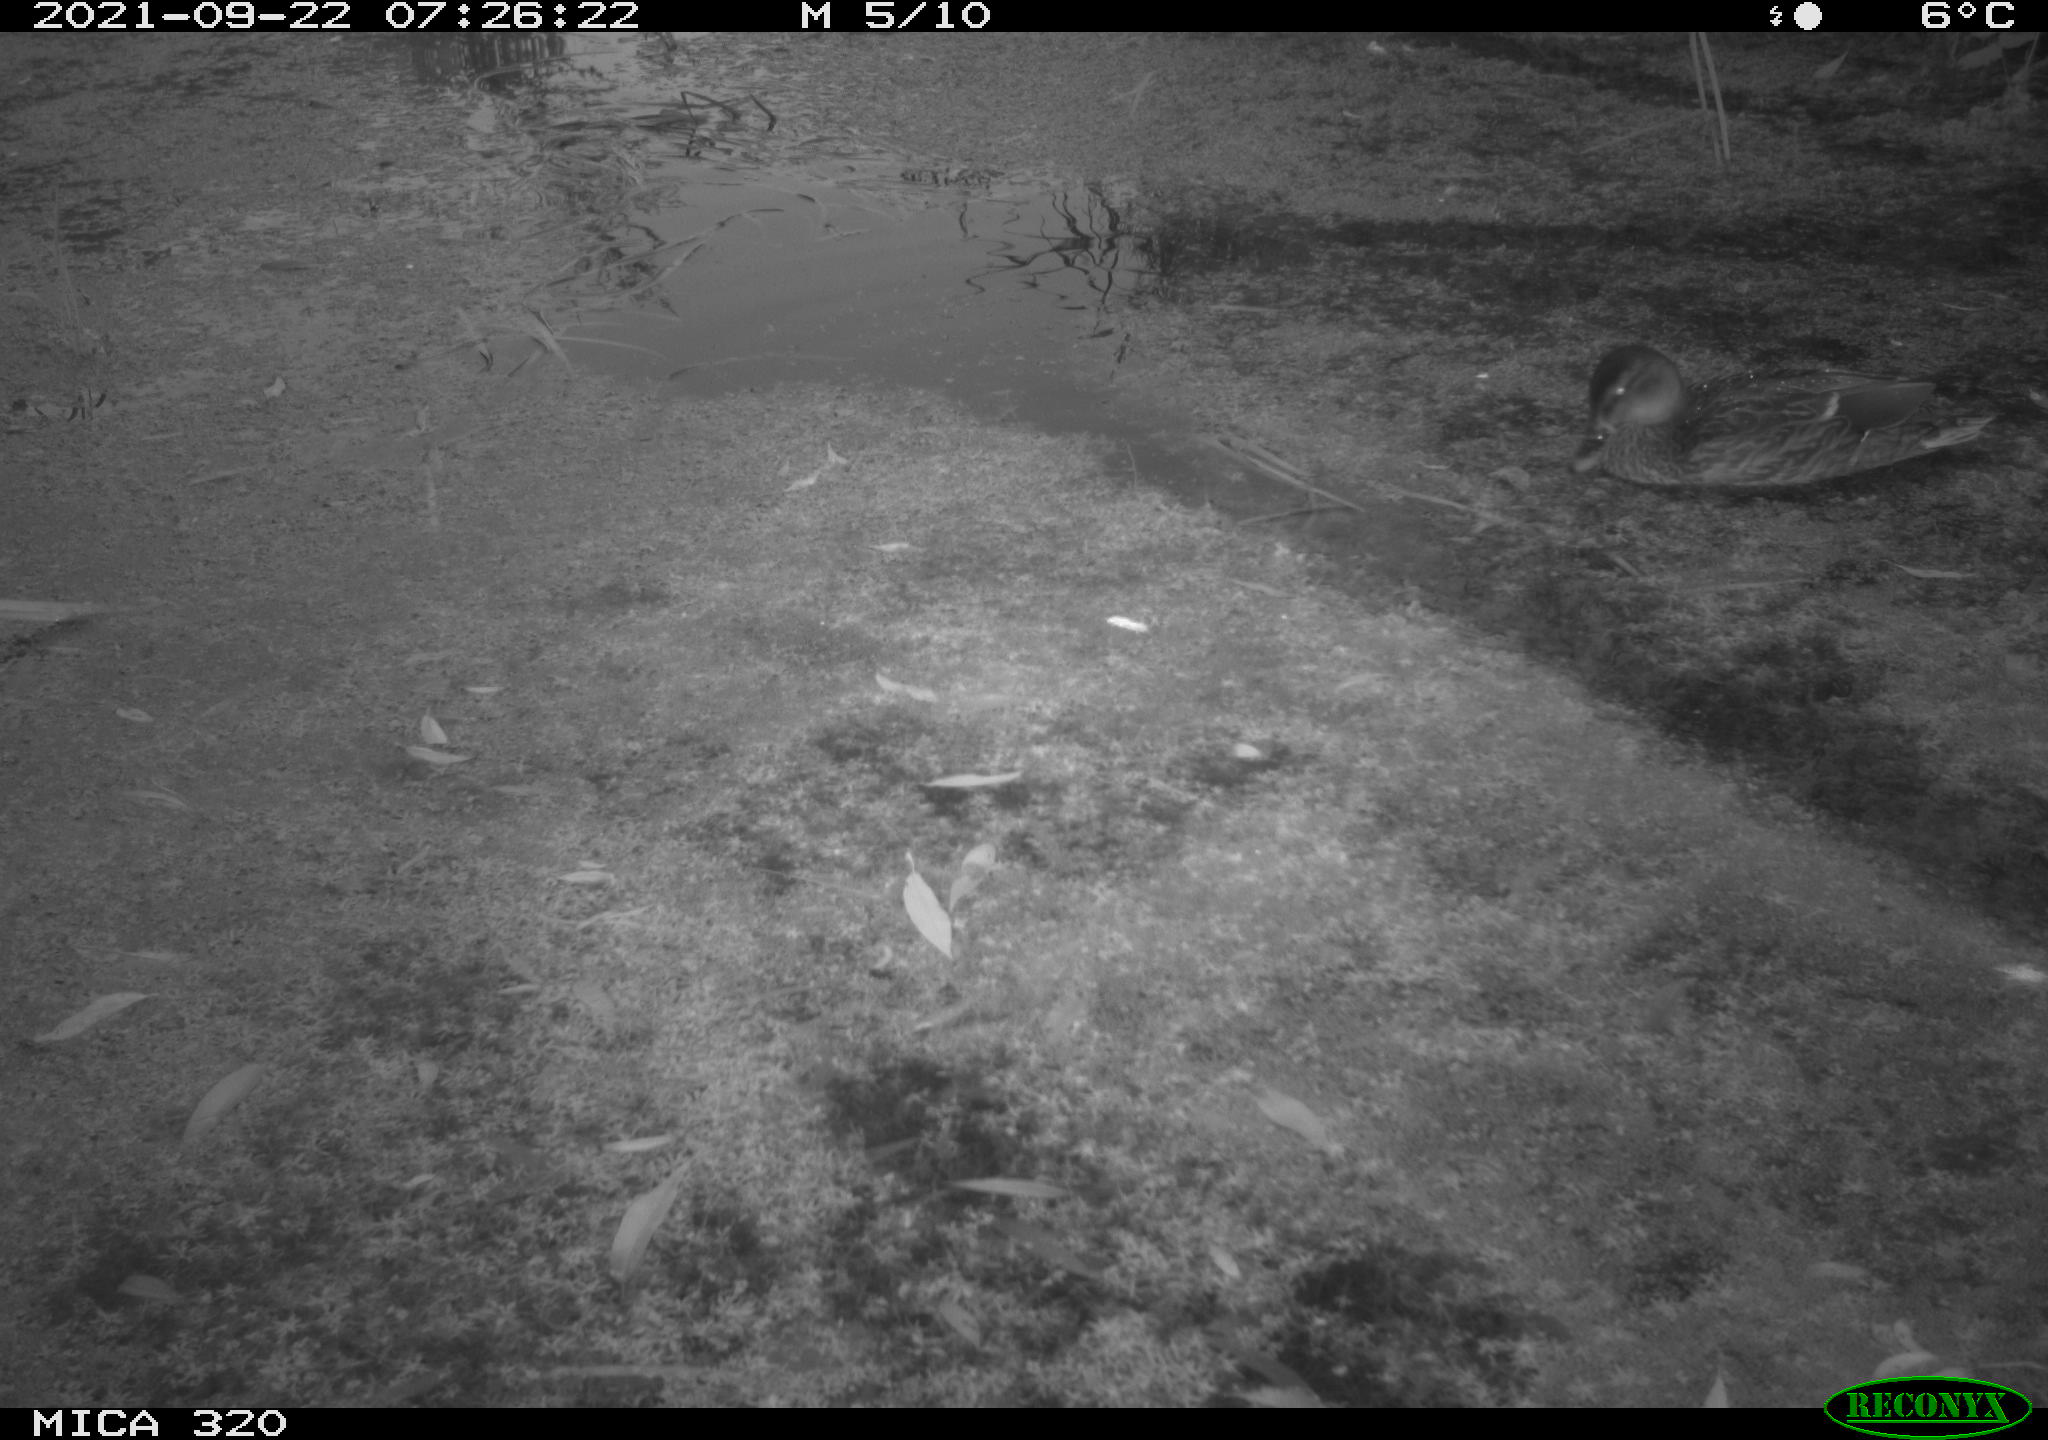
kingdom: Animalia
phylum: Chordata
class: Aves
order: Anseriformes
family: Anatidae
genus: Anas
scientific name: Anas platyrhynchos
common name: Mallard
